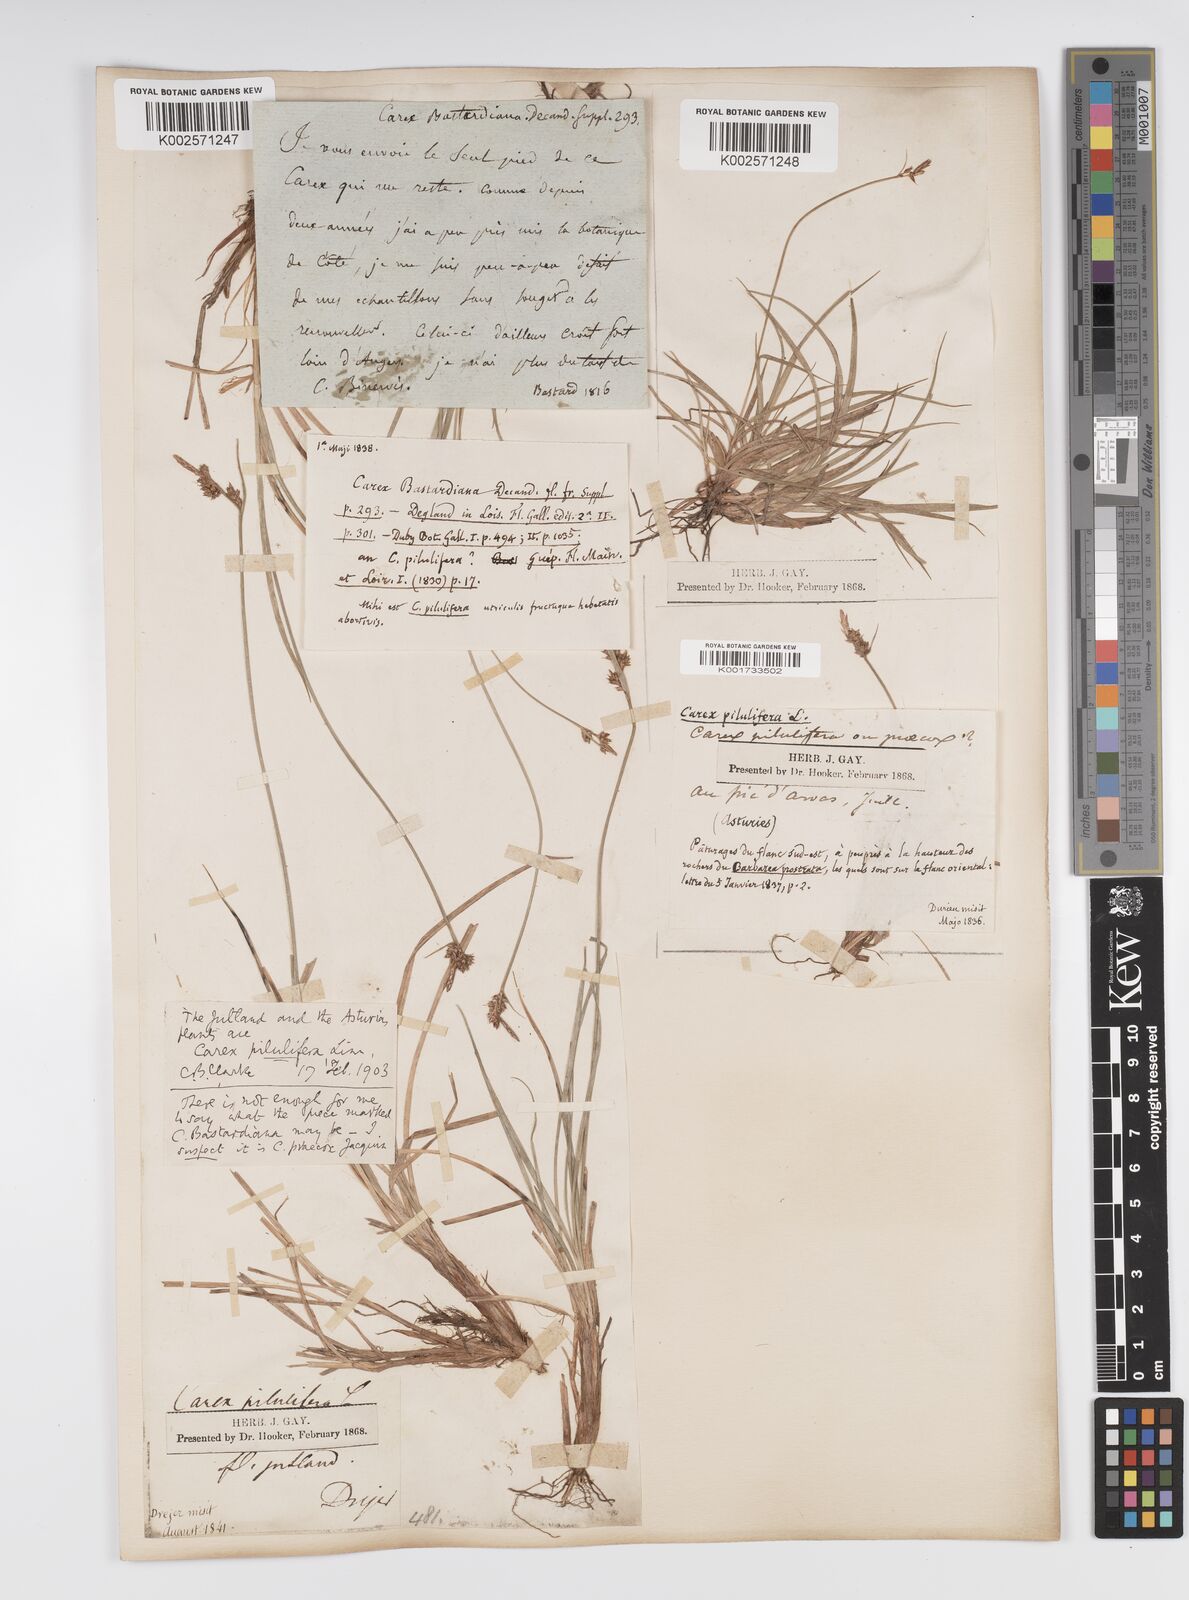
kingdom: Plantae
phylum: Tracheophyta
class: Liliopsida
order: Poales
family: Cyperaceae
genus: Carex
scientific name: Carex pilulifera
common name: Pill sedge
